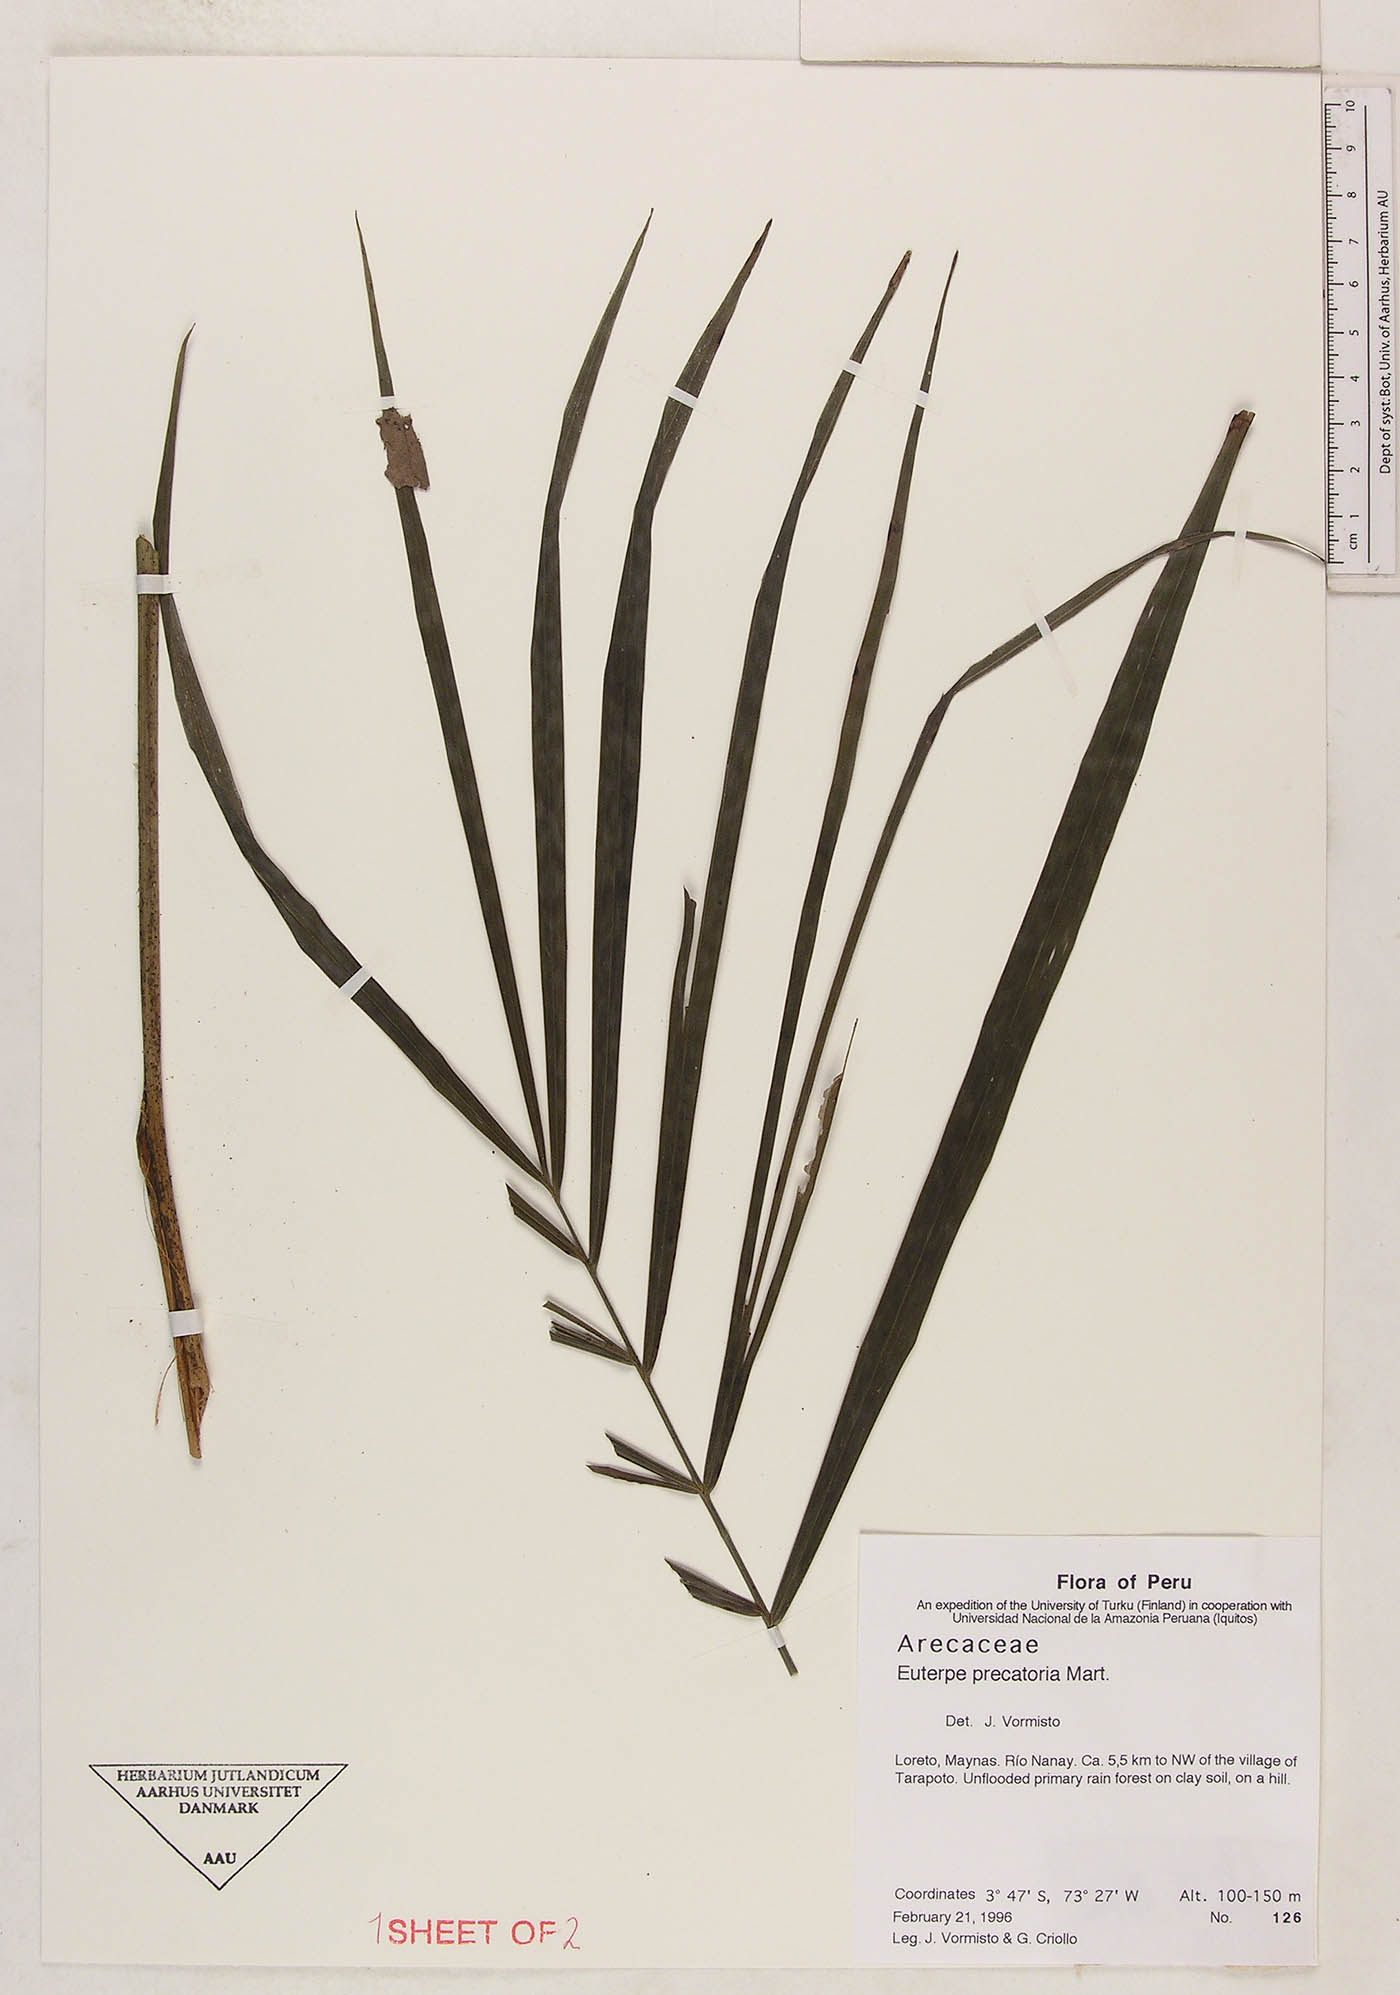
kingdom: Plantae
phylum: Tracheophyta
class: Liliopsida
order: Arecales
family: Arecaceae
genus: Euterpe
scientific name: Euterpe precatoria
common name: Mountain-cabbage
